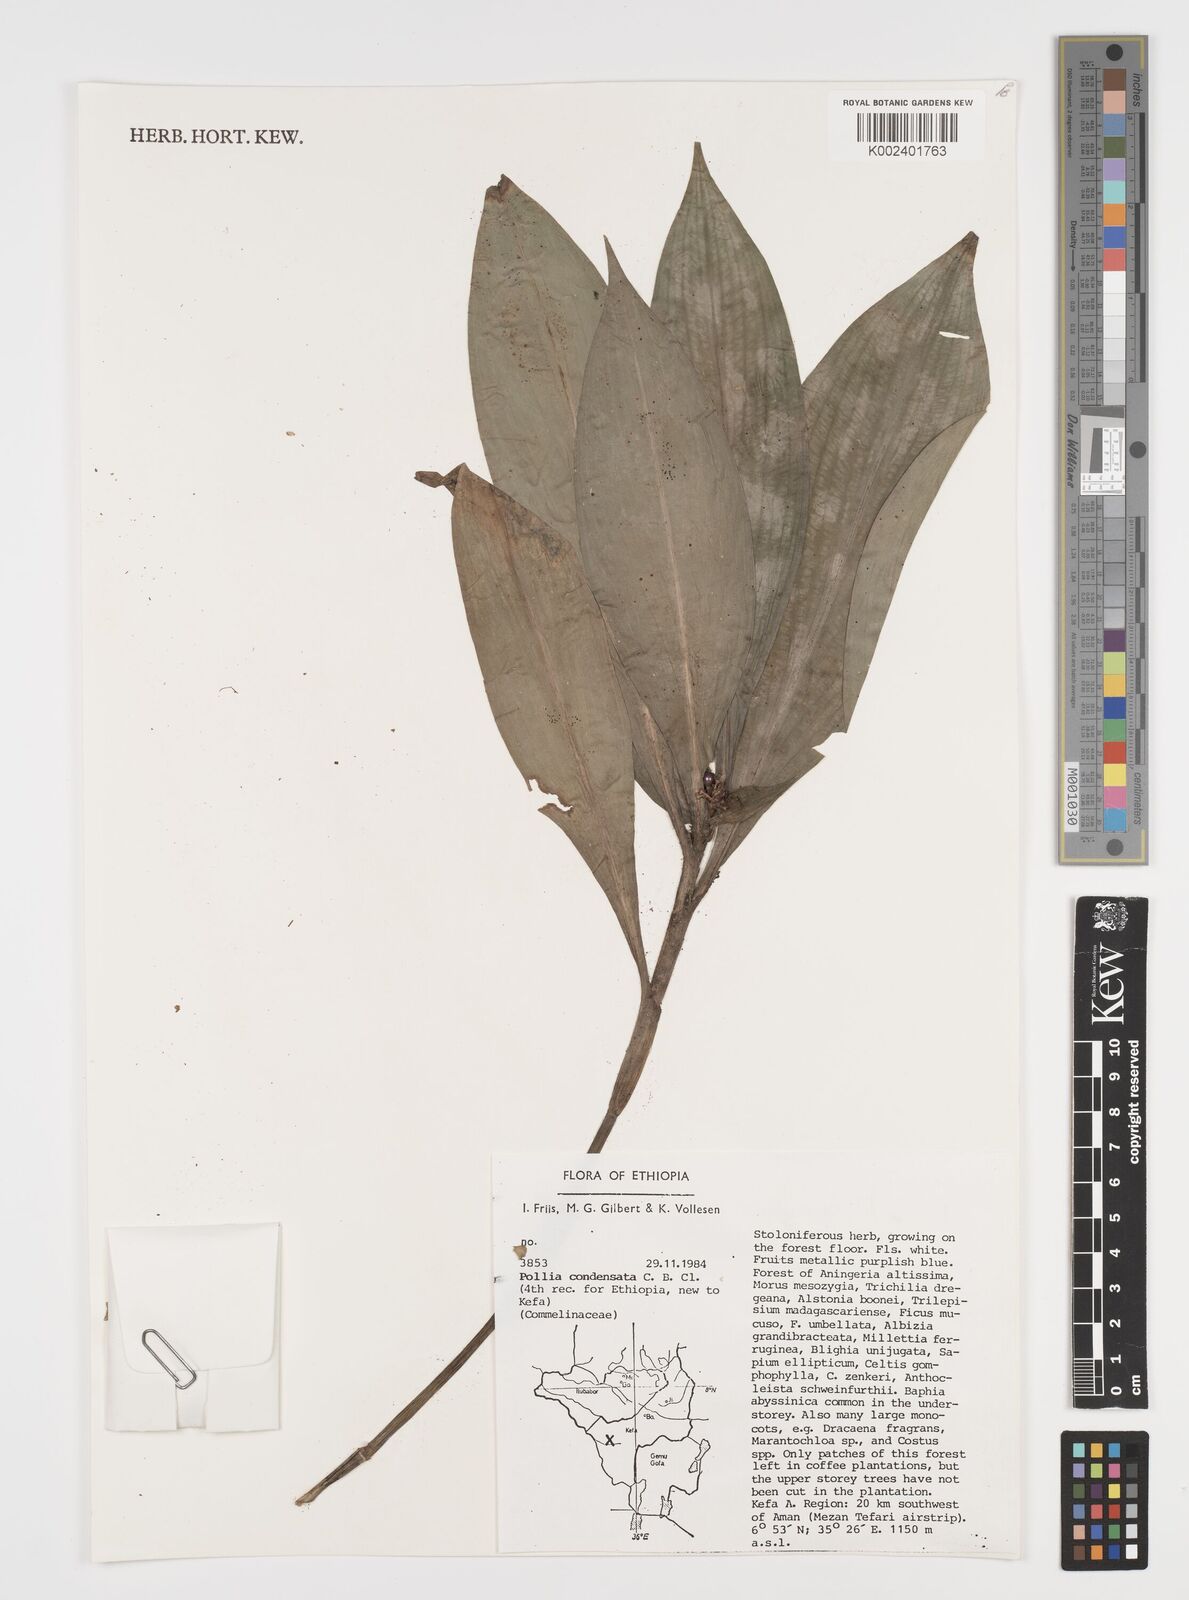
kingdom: Plantae
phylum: Tracheophyta
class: Liliopsida
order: Commelinales
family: Commelinaceae
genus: Pollia
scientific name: Pollia condensata
